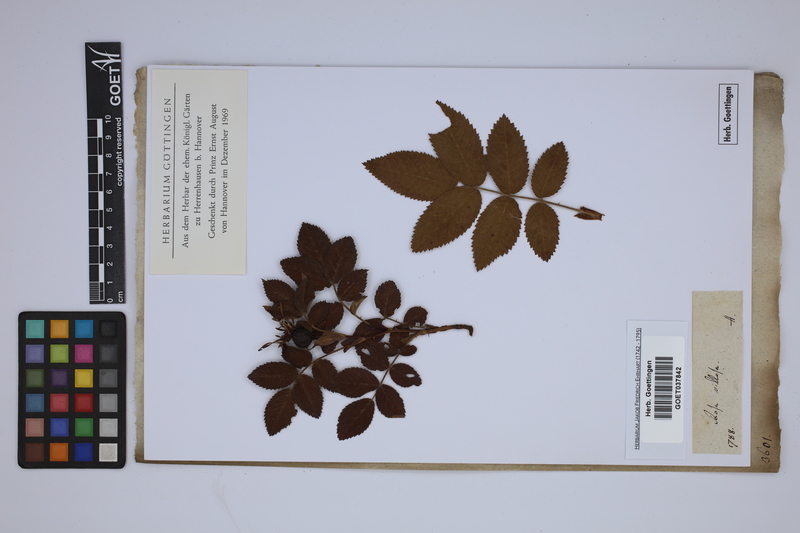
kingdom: Plantae
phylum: Tracheophyta
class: Magnoliopsida
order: Rosales
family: Rosaceae
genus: Rosa
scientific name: Rosa villosa
